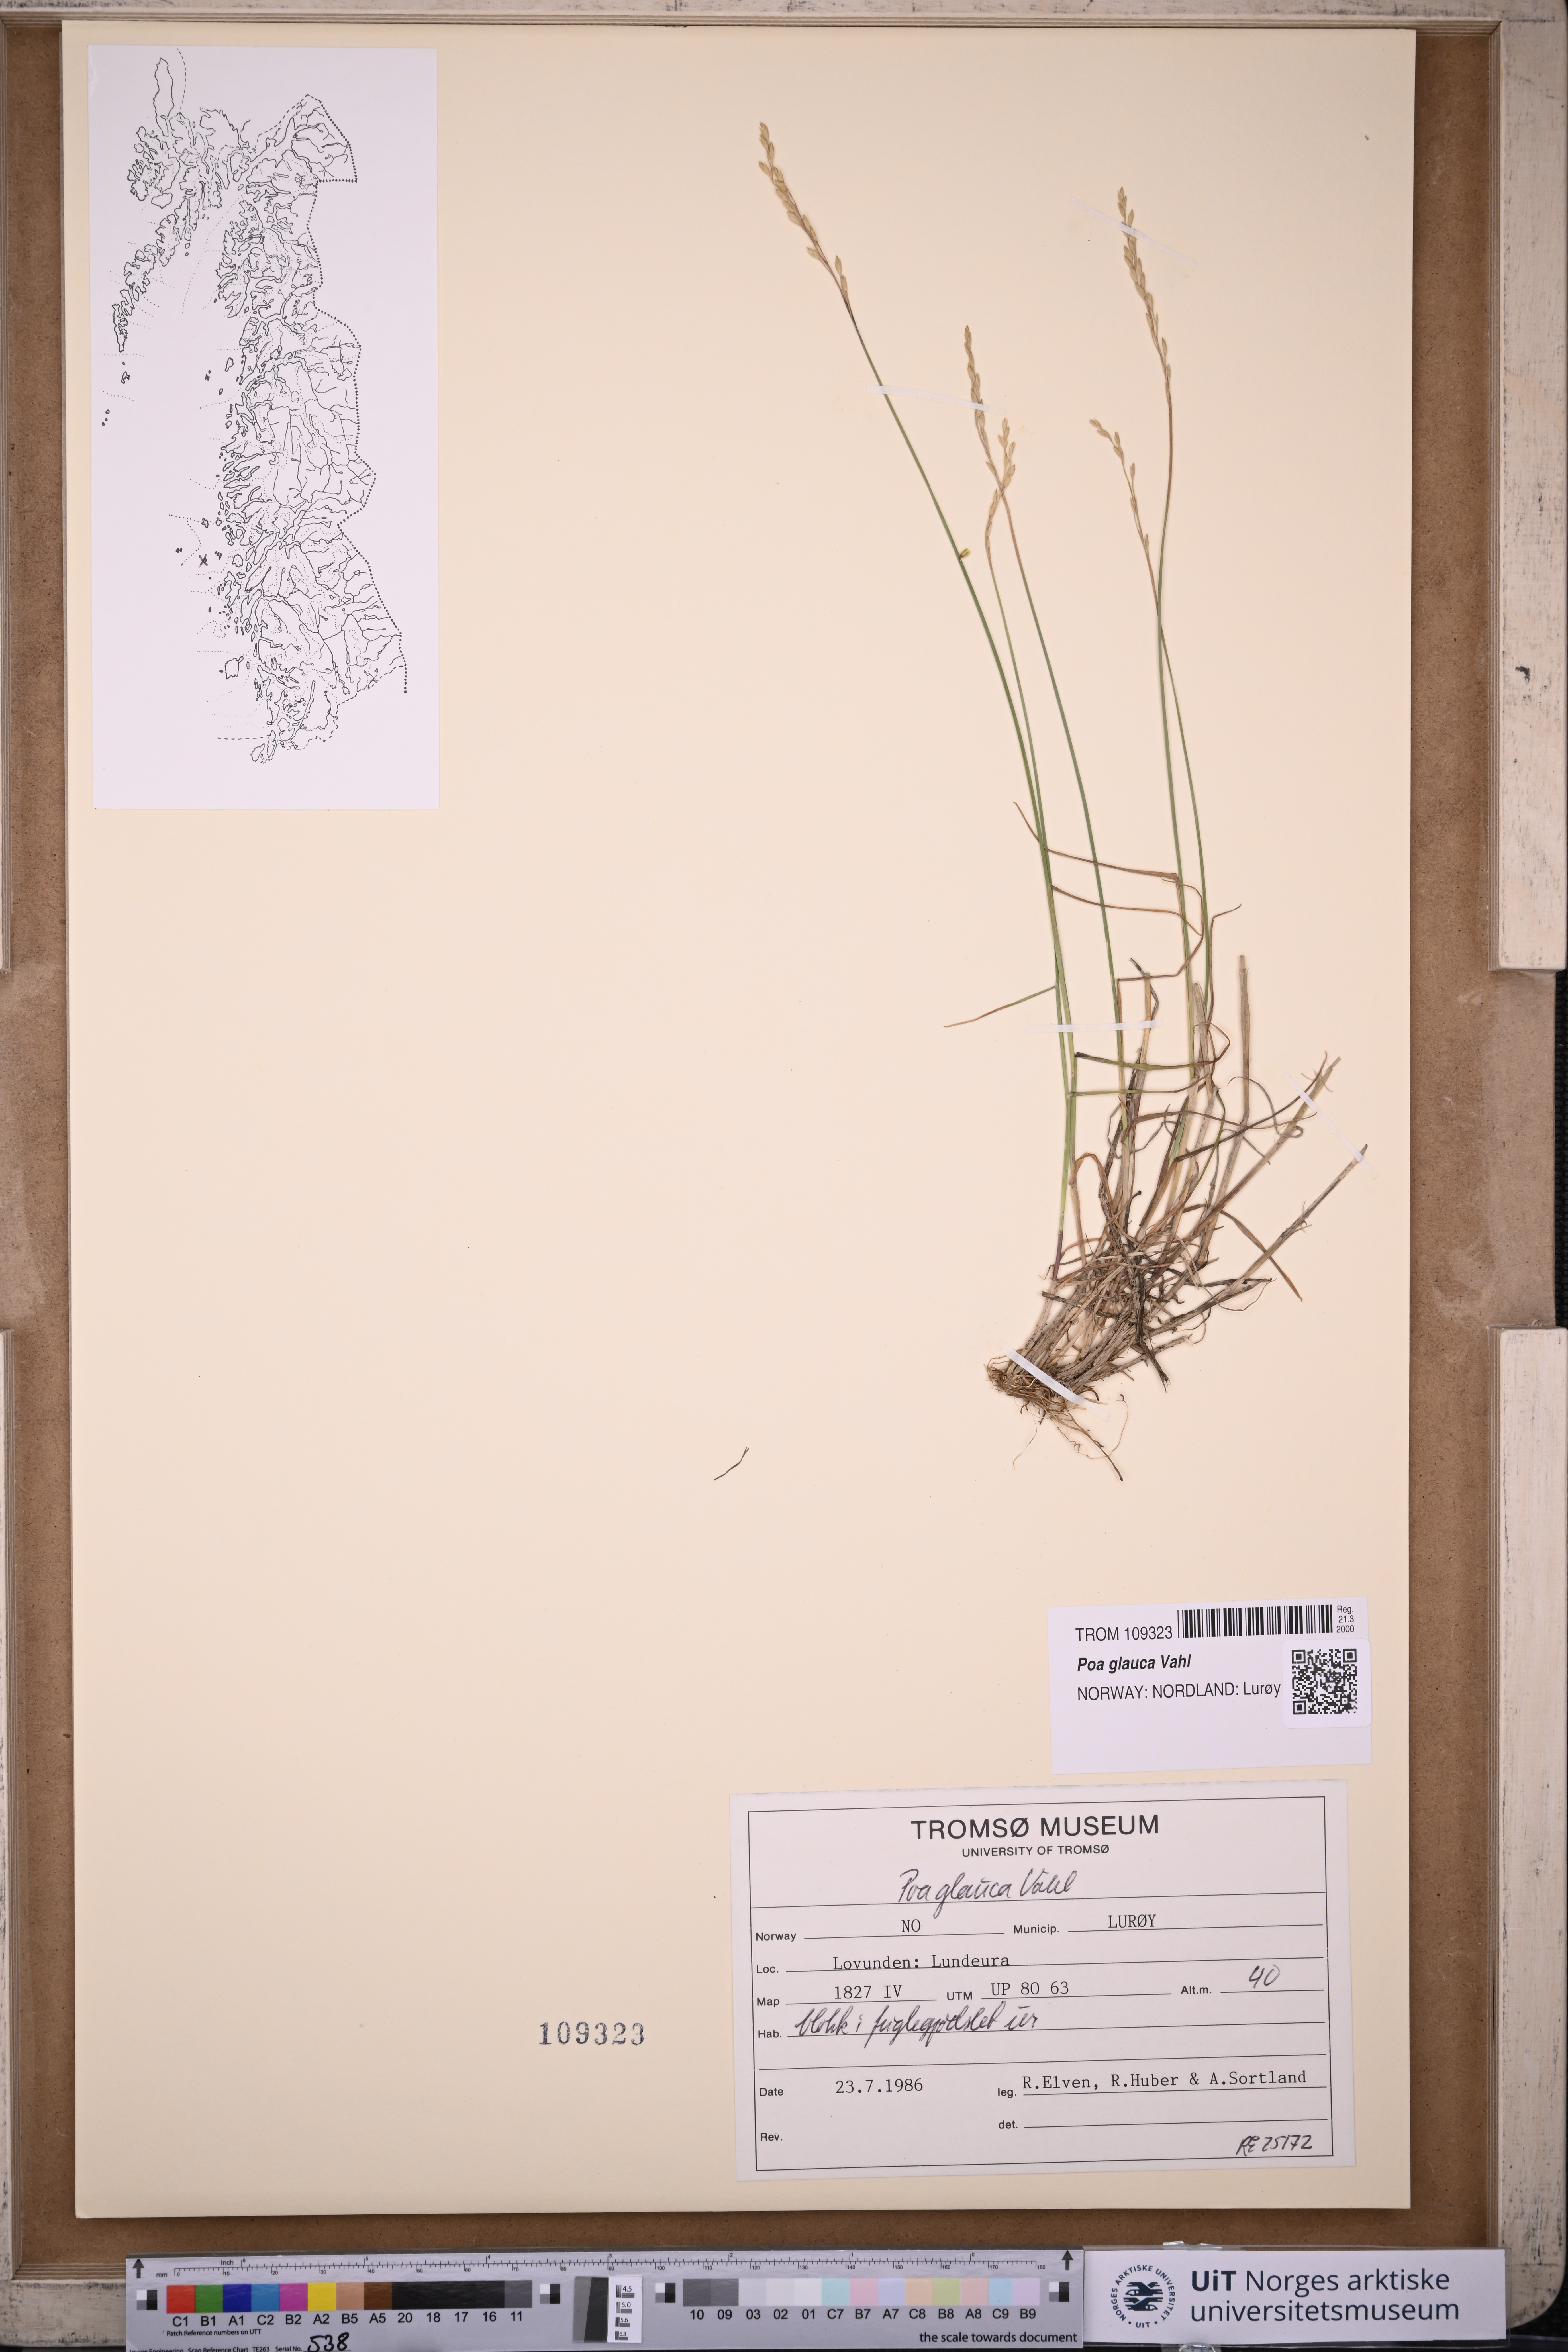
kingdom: Plantae
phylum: Tracheophyta
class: Liliopsida
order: Poales
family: Poaceae
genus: Poa
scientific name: Poa glauca
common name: Glaucous bluegrass
